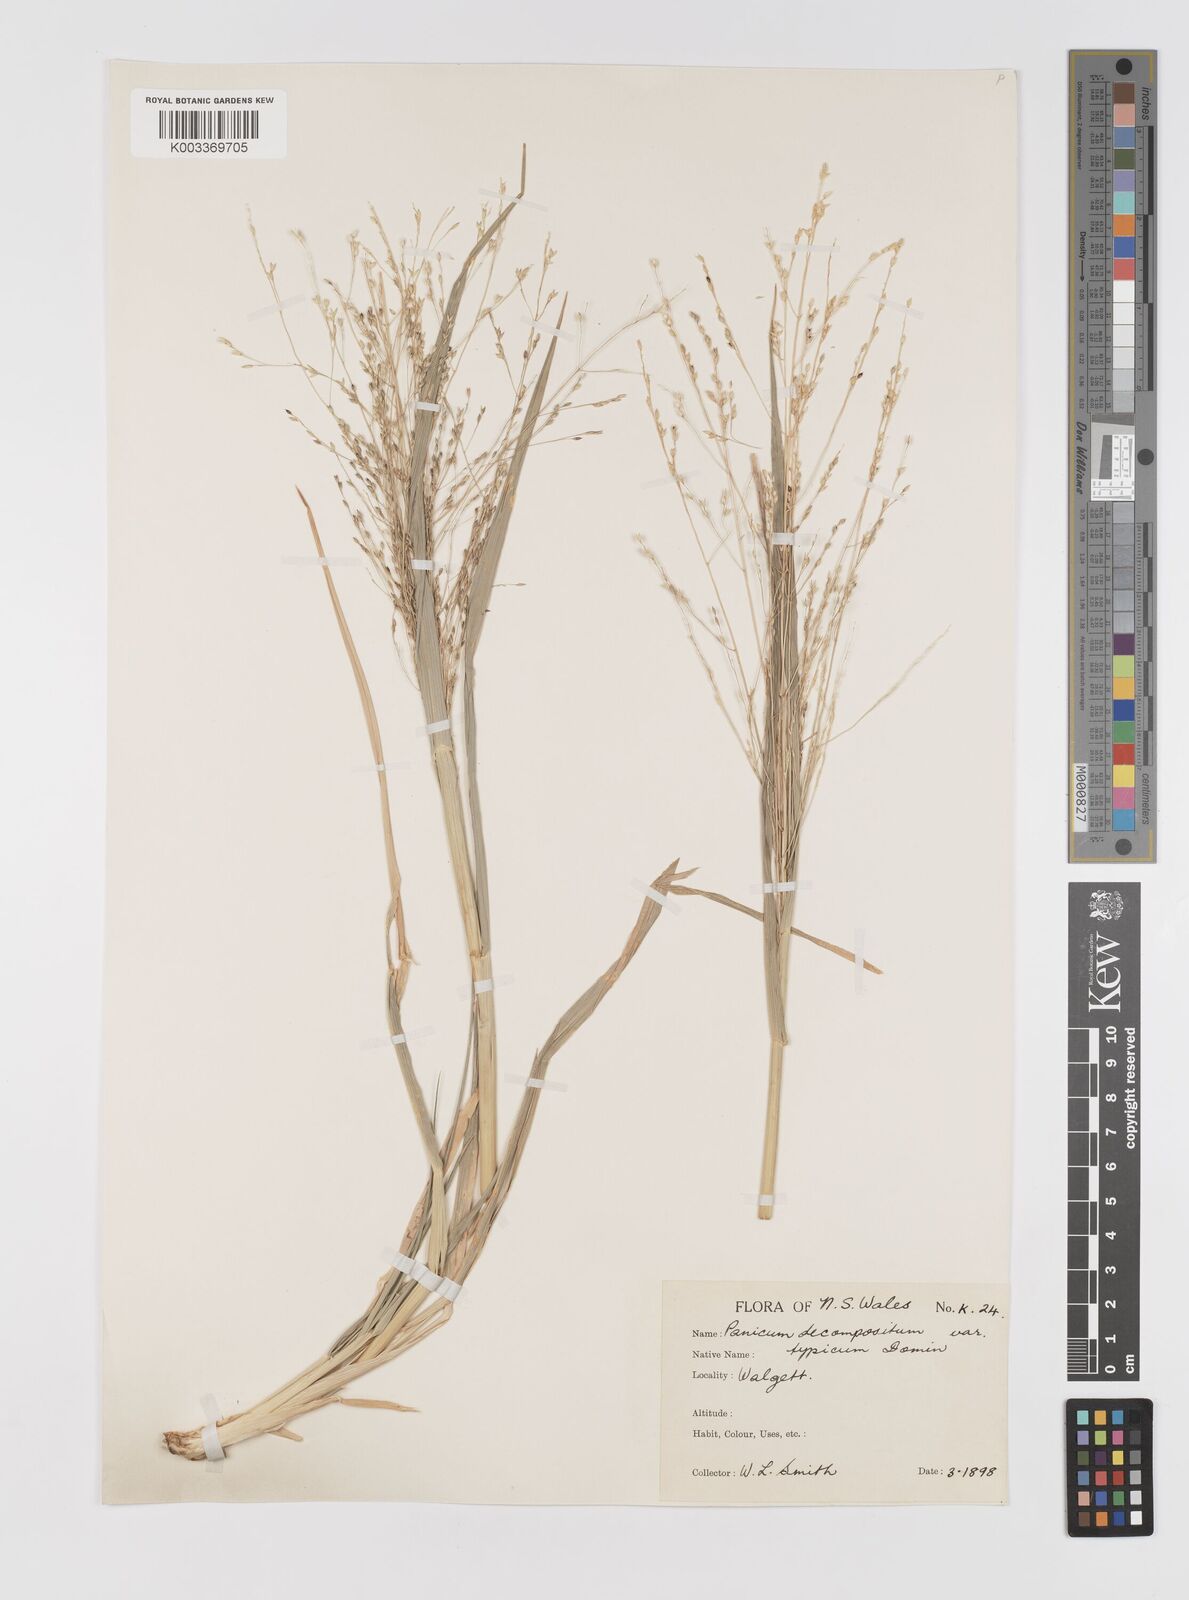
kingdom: Plantae
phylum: Tracheophyta
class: Liliopsida
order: Poales
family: Poaceae
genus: Panicum
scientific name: Panicum decompositum
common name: Australian millet
